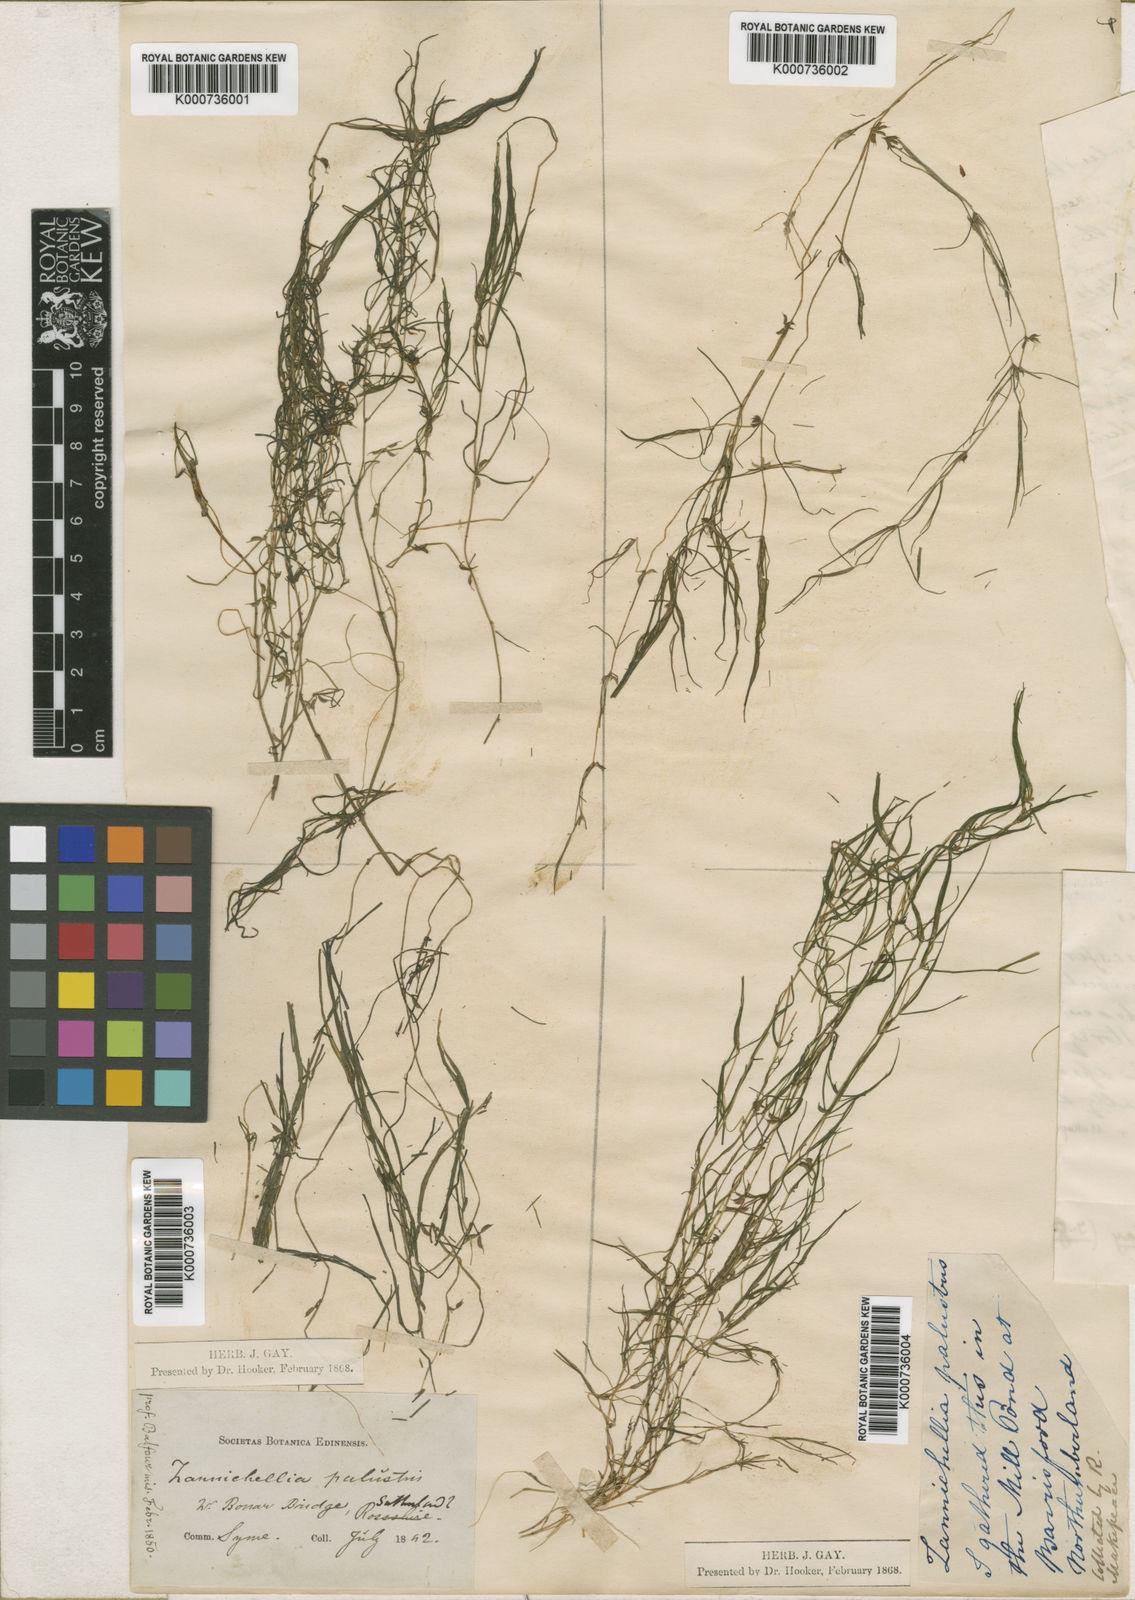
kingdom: Plantae
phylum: Tracheophyta
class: Liliopsida
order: Alismatales
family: Potamogetonaceae
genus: Zannichellia
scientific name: Zannichellia palustris
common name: Horned pondweed
